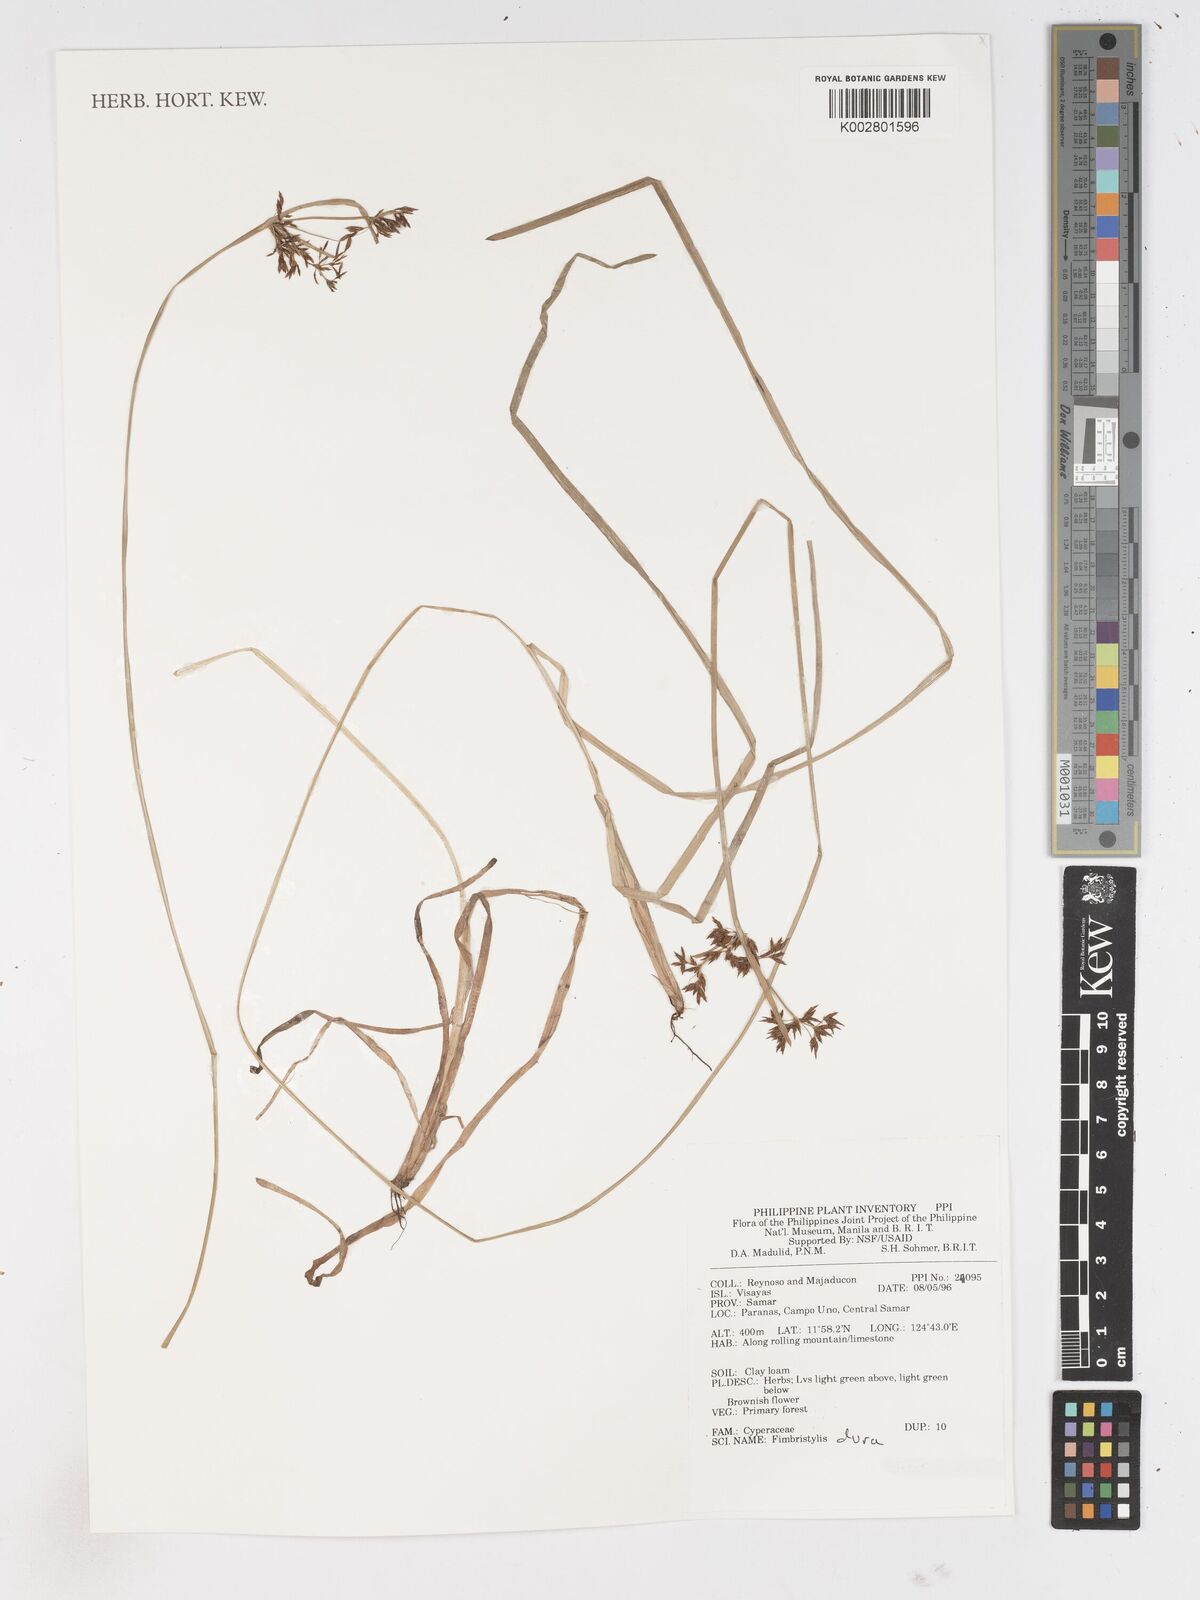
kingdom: Plantae
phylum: Tracheophyta
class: Liliopsida
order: Poales
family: Cyperaceae
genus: Fimbristylis
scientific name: Fimbristylis dura
